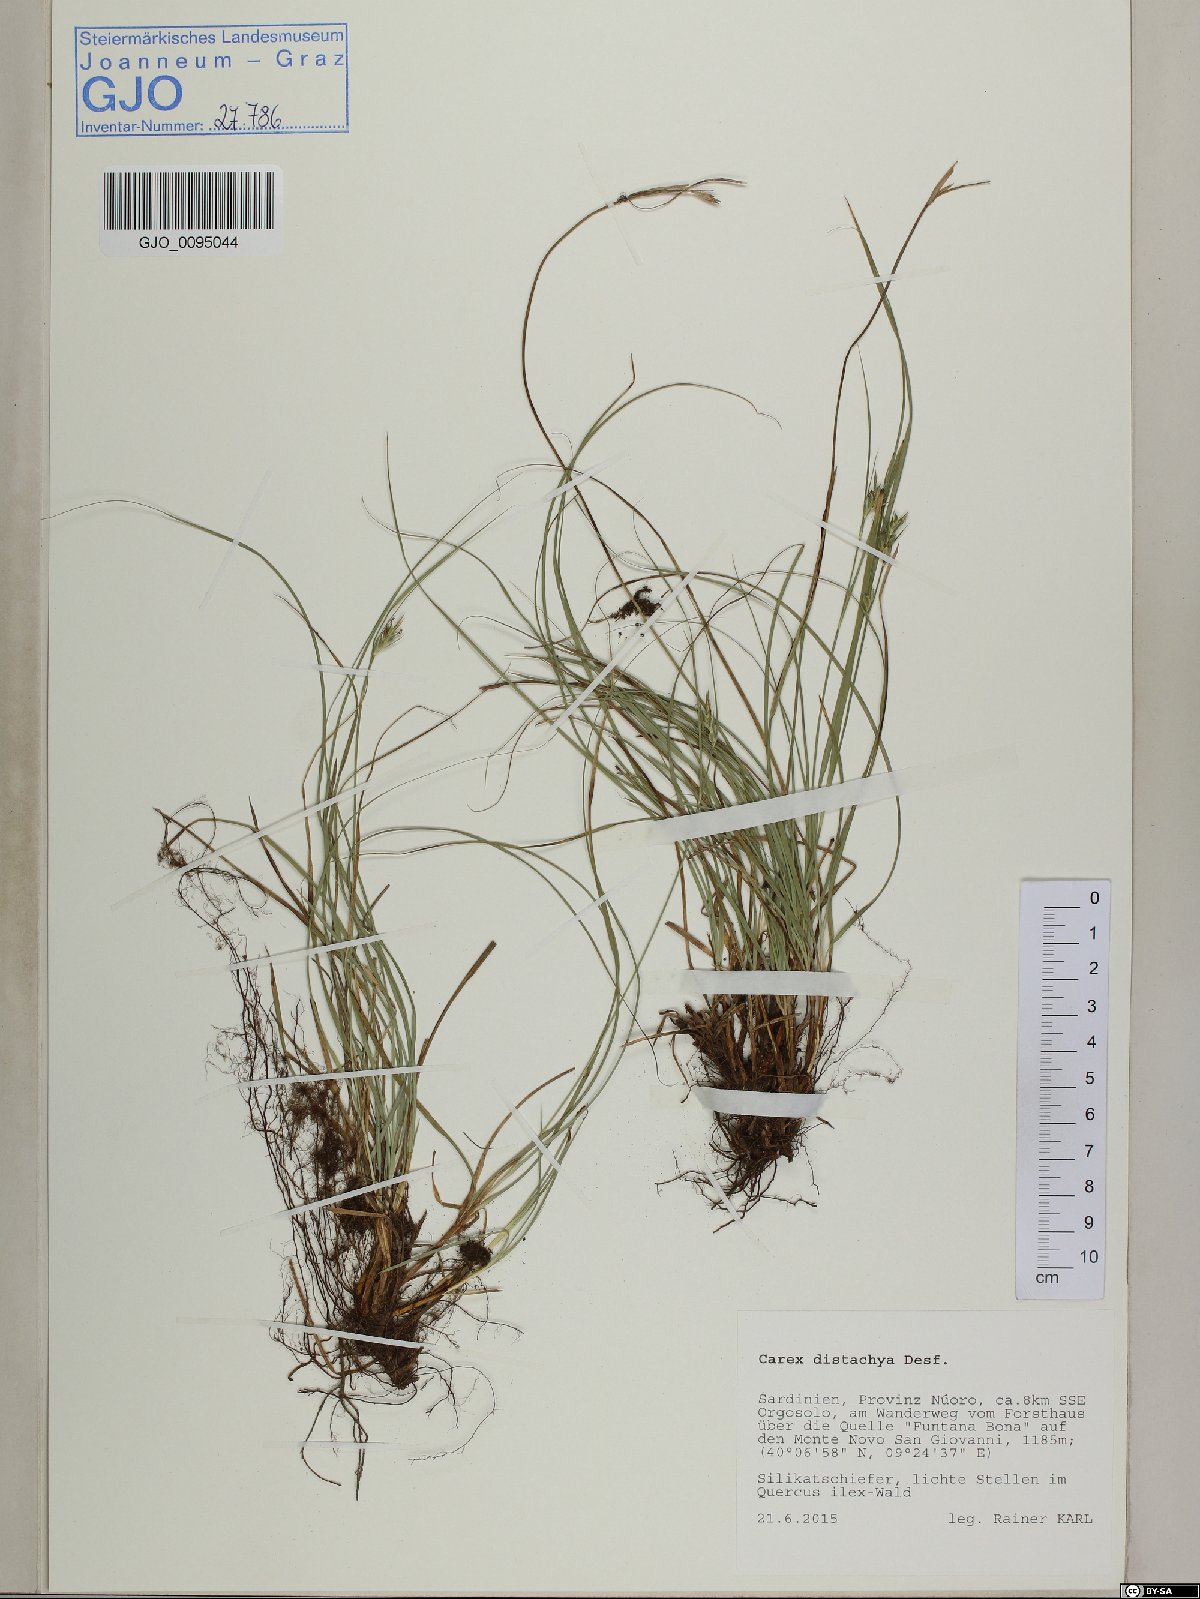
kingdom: Plantae
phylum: Tracheophyta
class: Liliopsida
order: Poales
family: Cyperaceae
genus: Carex
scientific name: Carex distachya
